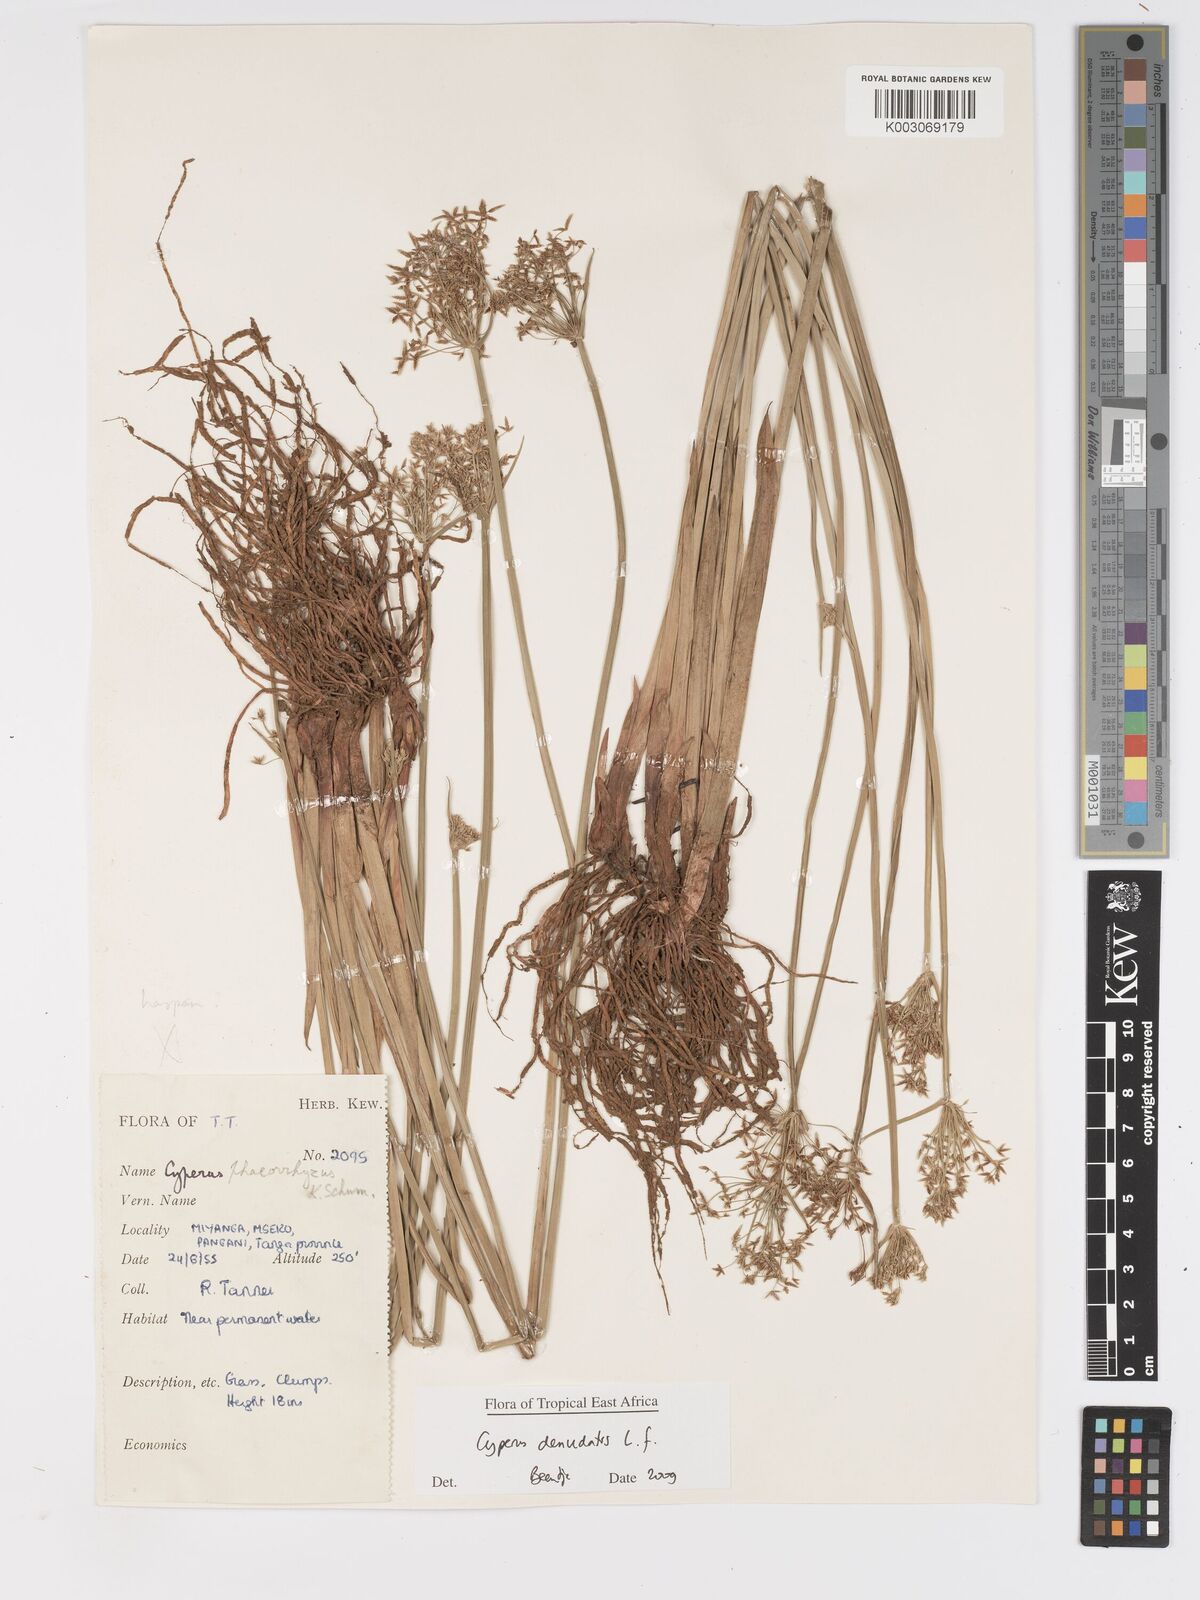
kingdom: Plantae
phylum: Tracheophyta
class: Liliopsida
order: Poales
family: Cyperaceae
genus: Cyperus
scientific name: Cyperus denudatus
